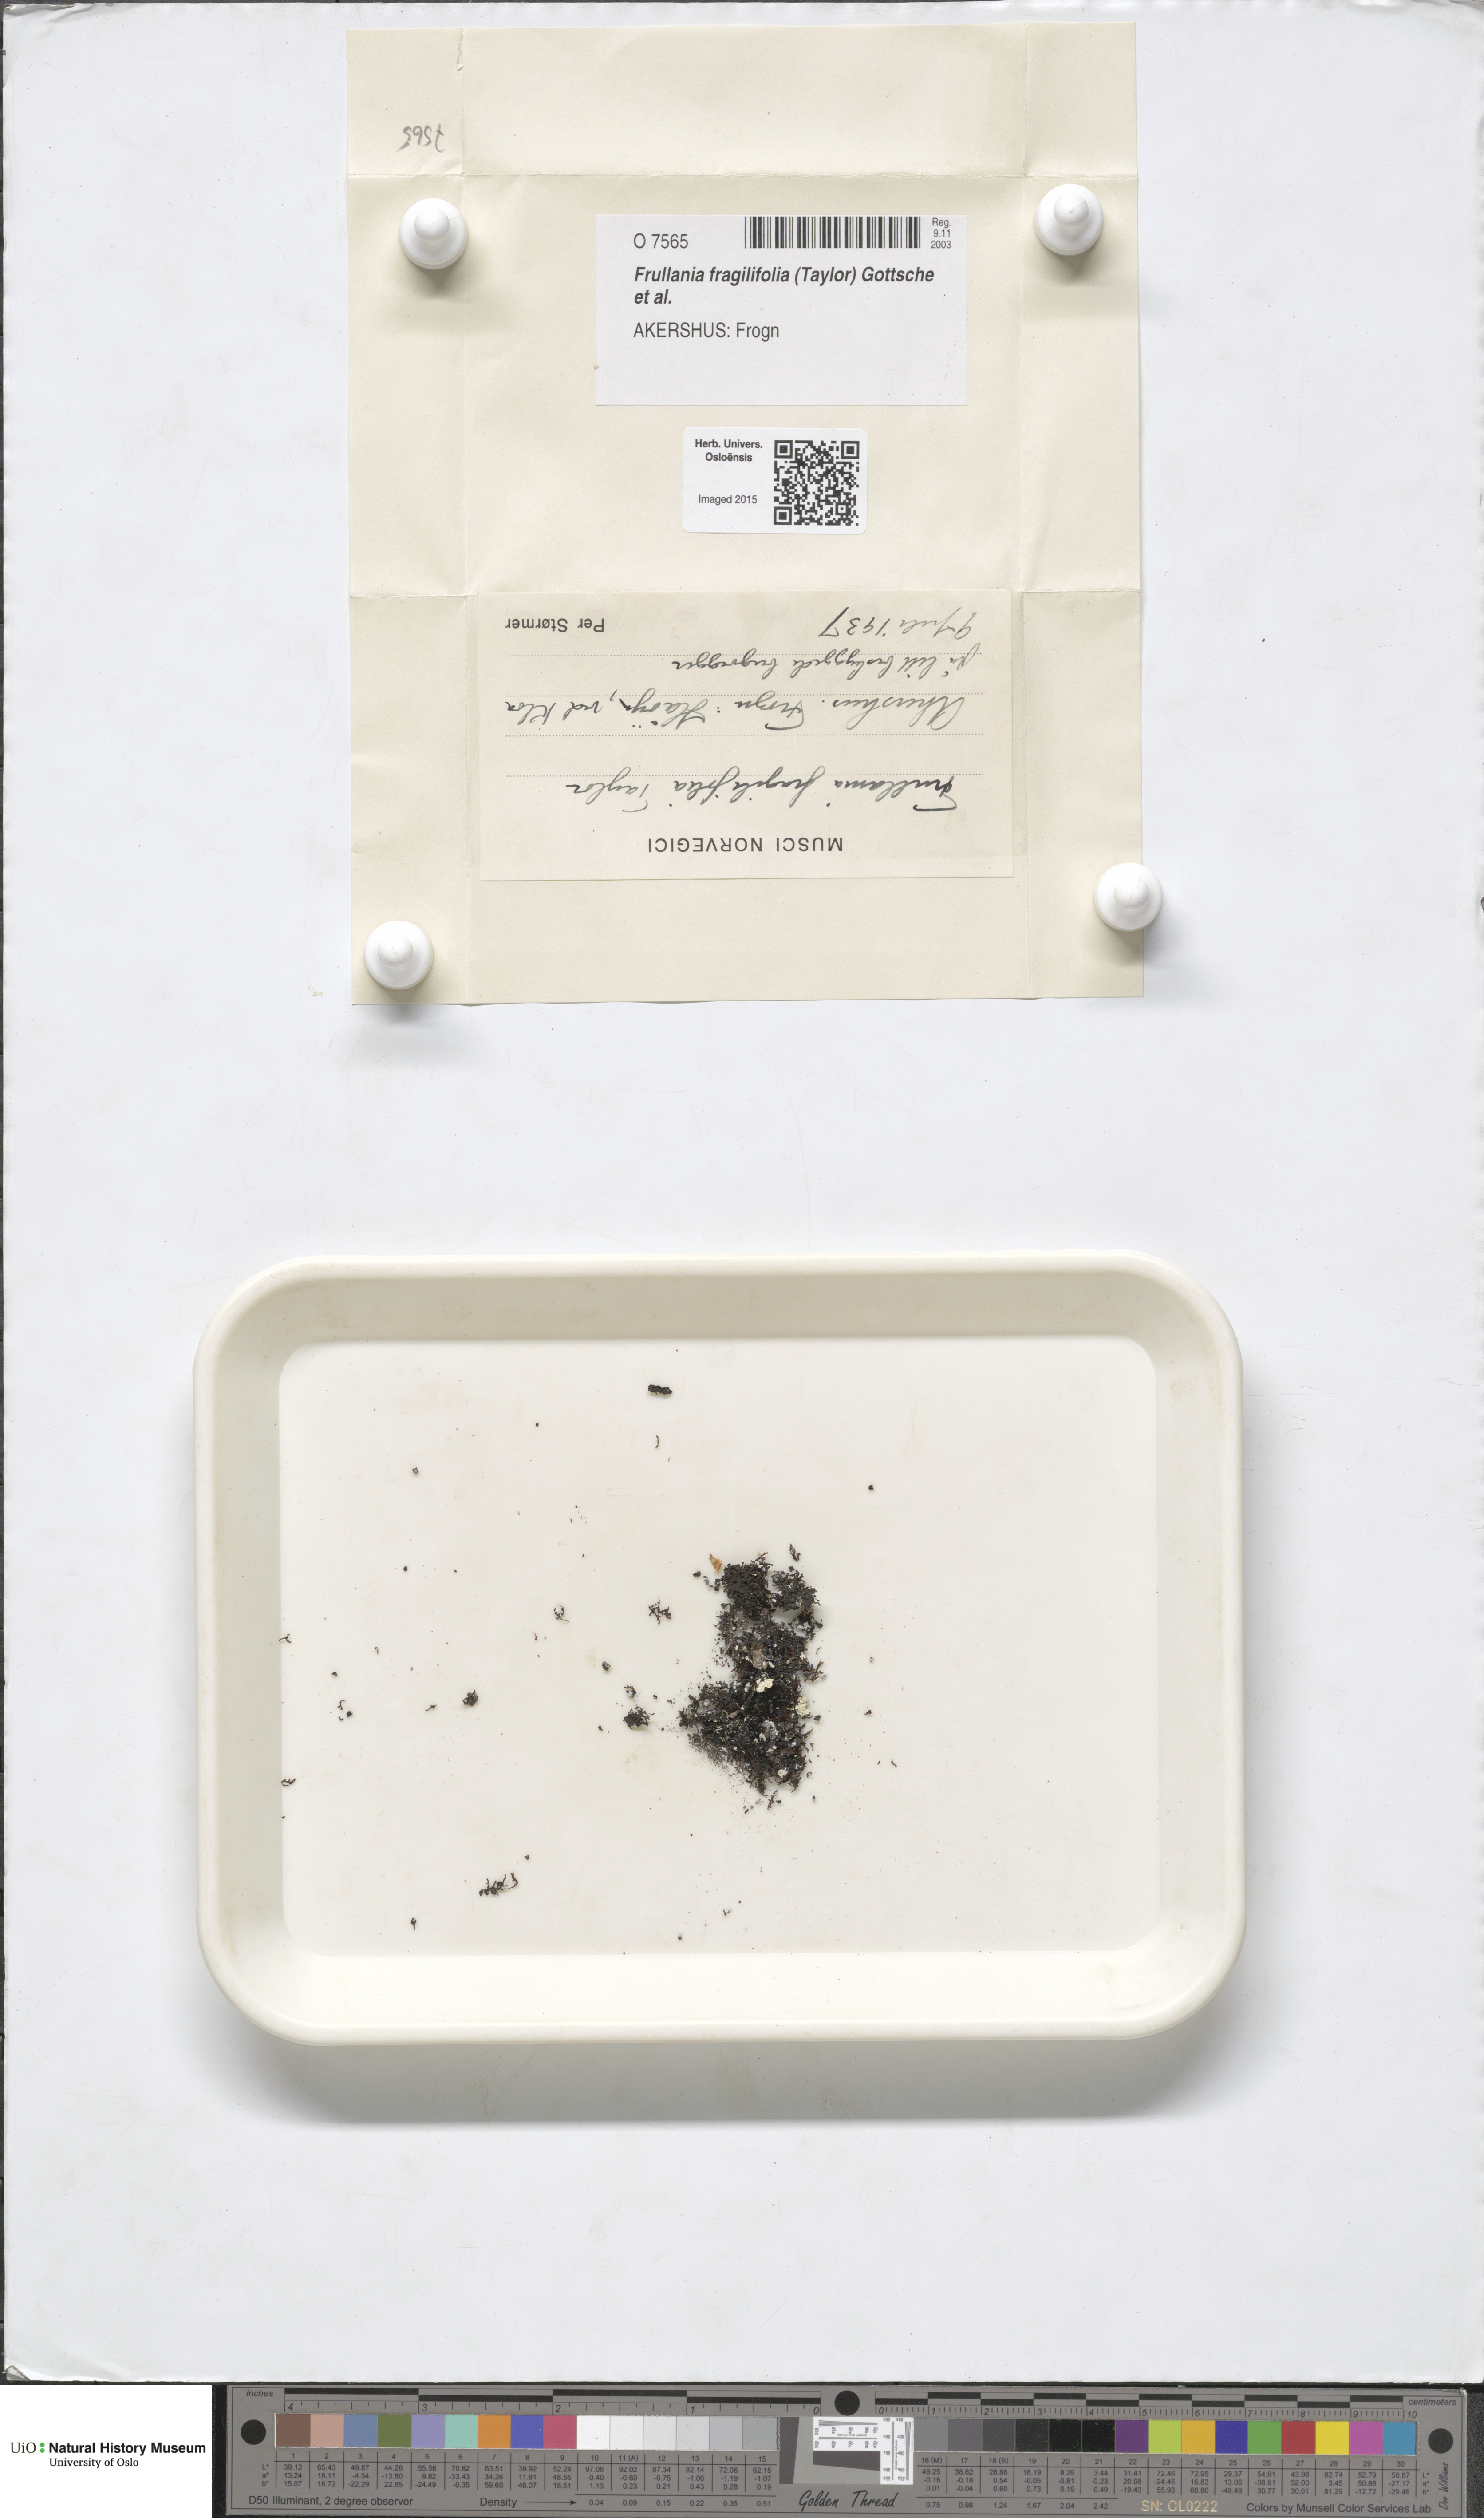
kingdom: Plantae
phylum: Marchantiophyta
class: Jungermanniopsida
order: Porellales
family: Frullaniaceae
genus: Frullania
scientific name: Frullania fragilifolia
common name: Spotty scalewort
